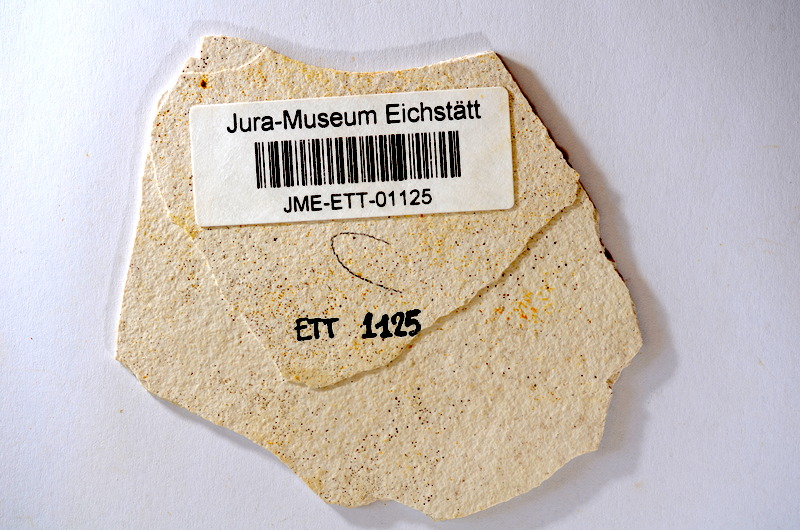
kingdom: Animalia
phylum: Chordata
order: Salmoniformes
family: Orthogonikleithridae
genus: Orthogonikleithrus
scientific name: Orthogonikleithrus hoelli
